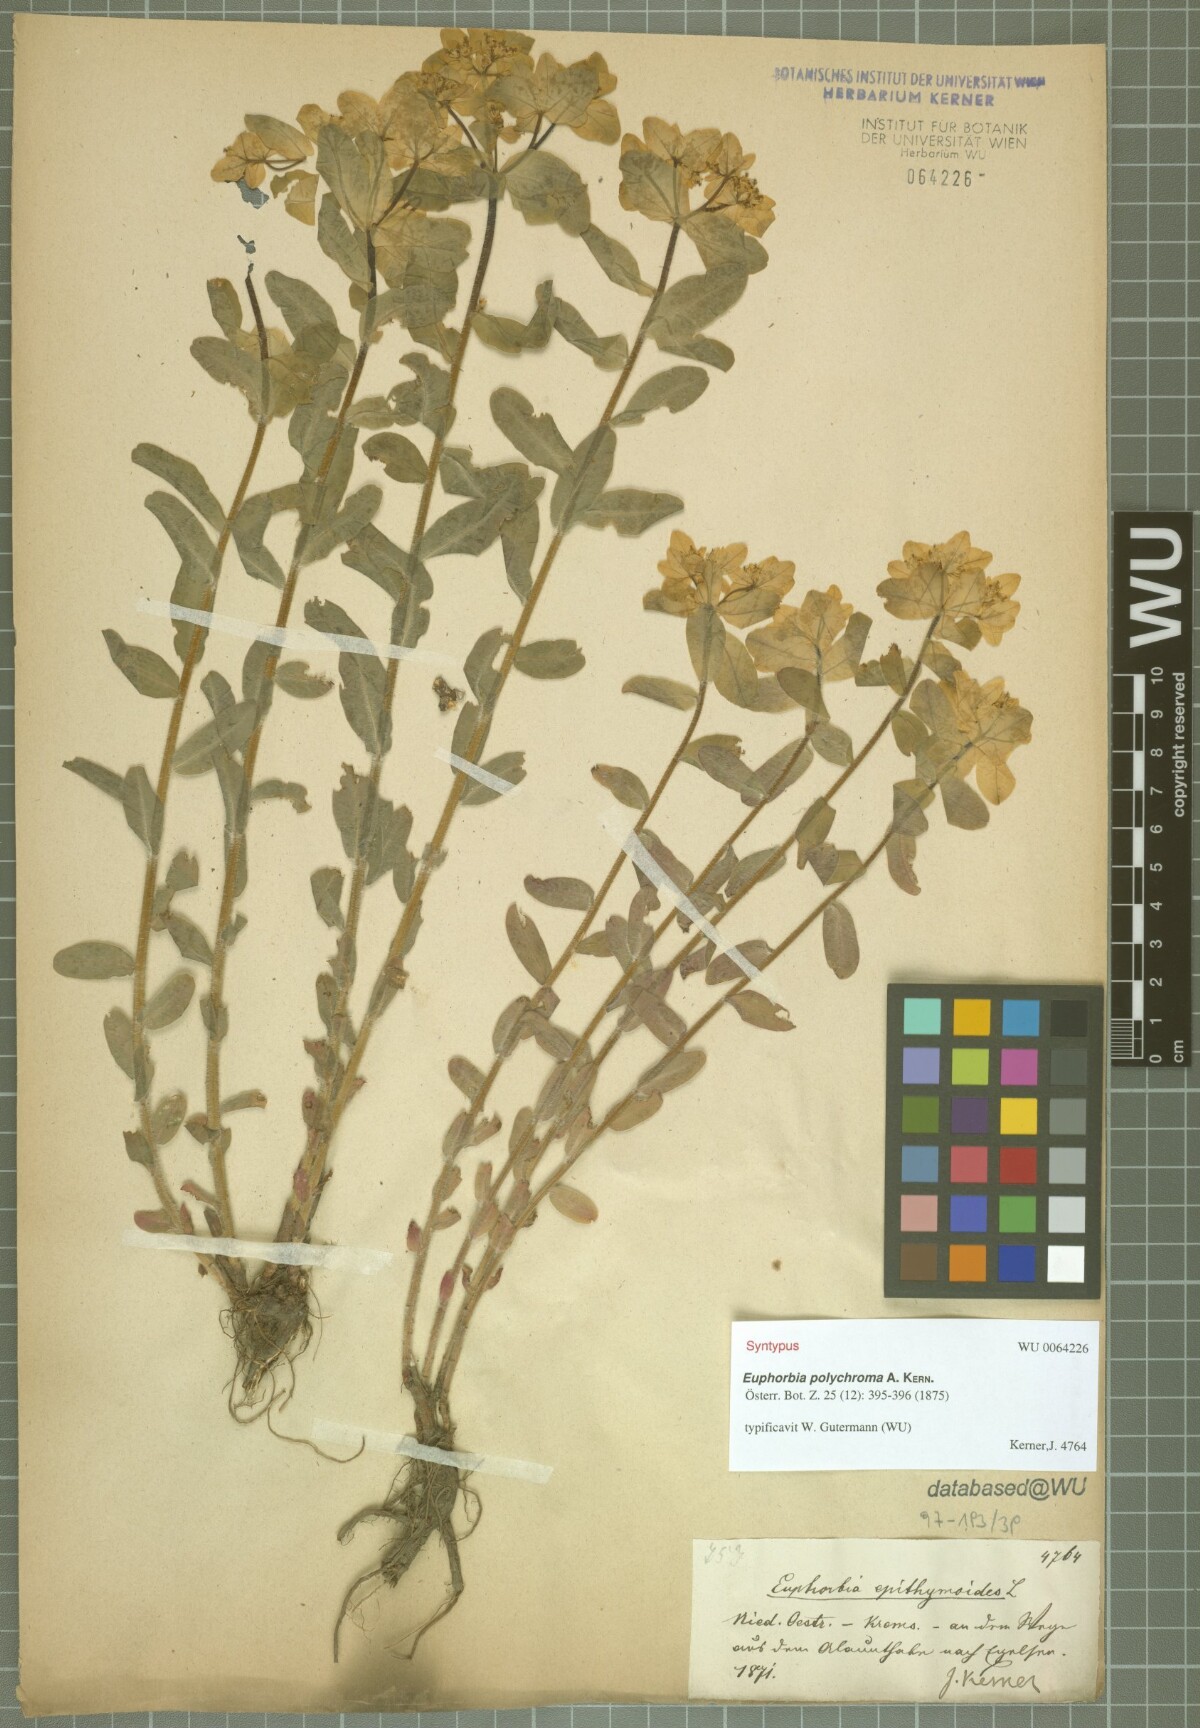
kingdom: Plantae
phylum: Tracheophyta
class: Magnoliopsida
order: Malpighiales
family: Euphorbiaceae
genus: Euphorbia
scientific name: Euphorbia epithymoides
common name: Cushion spurge
